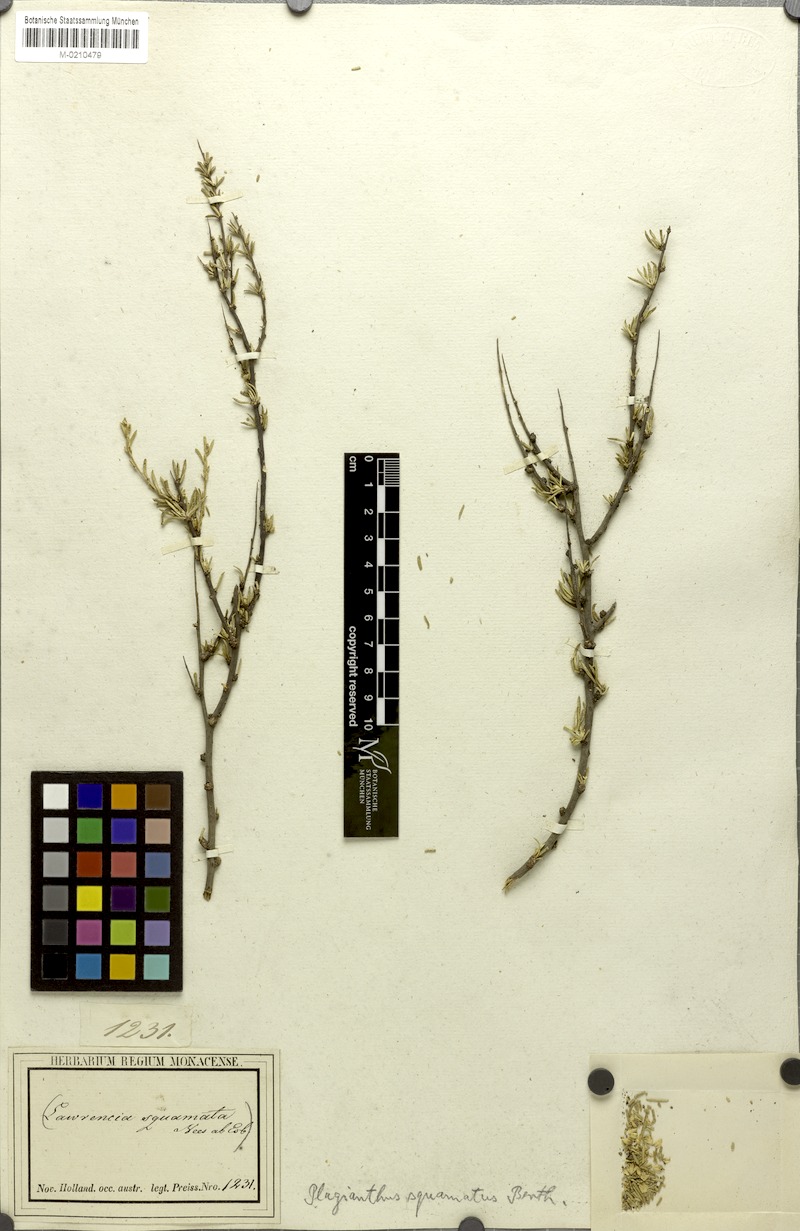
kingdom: Plantae
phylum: Tracheophyta
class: Magnoliopsida
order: Malvales
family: Malvaceae
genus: Lawrencia
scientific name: Lawrencia squamata
